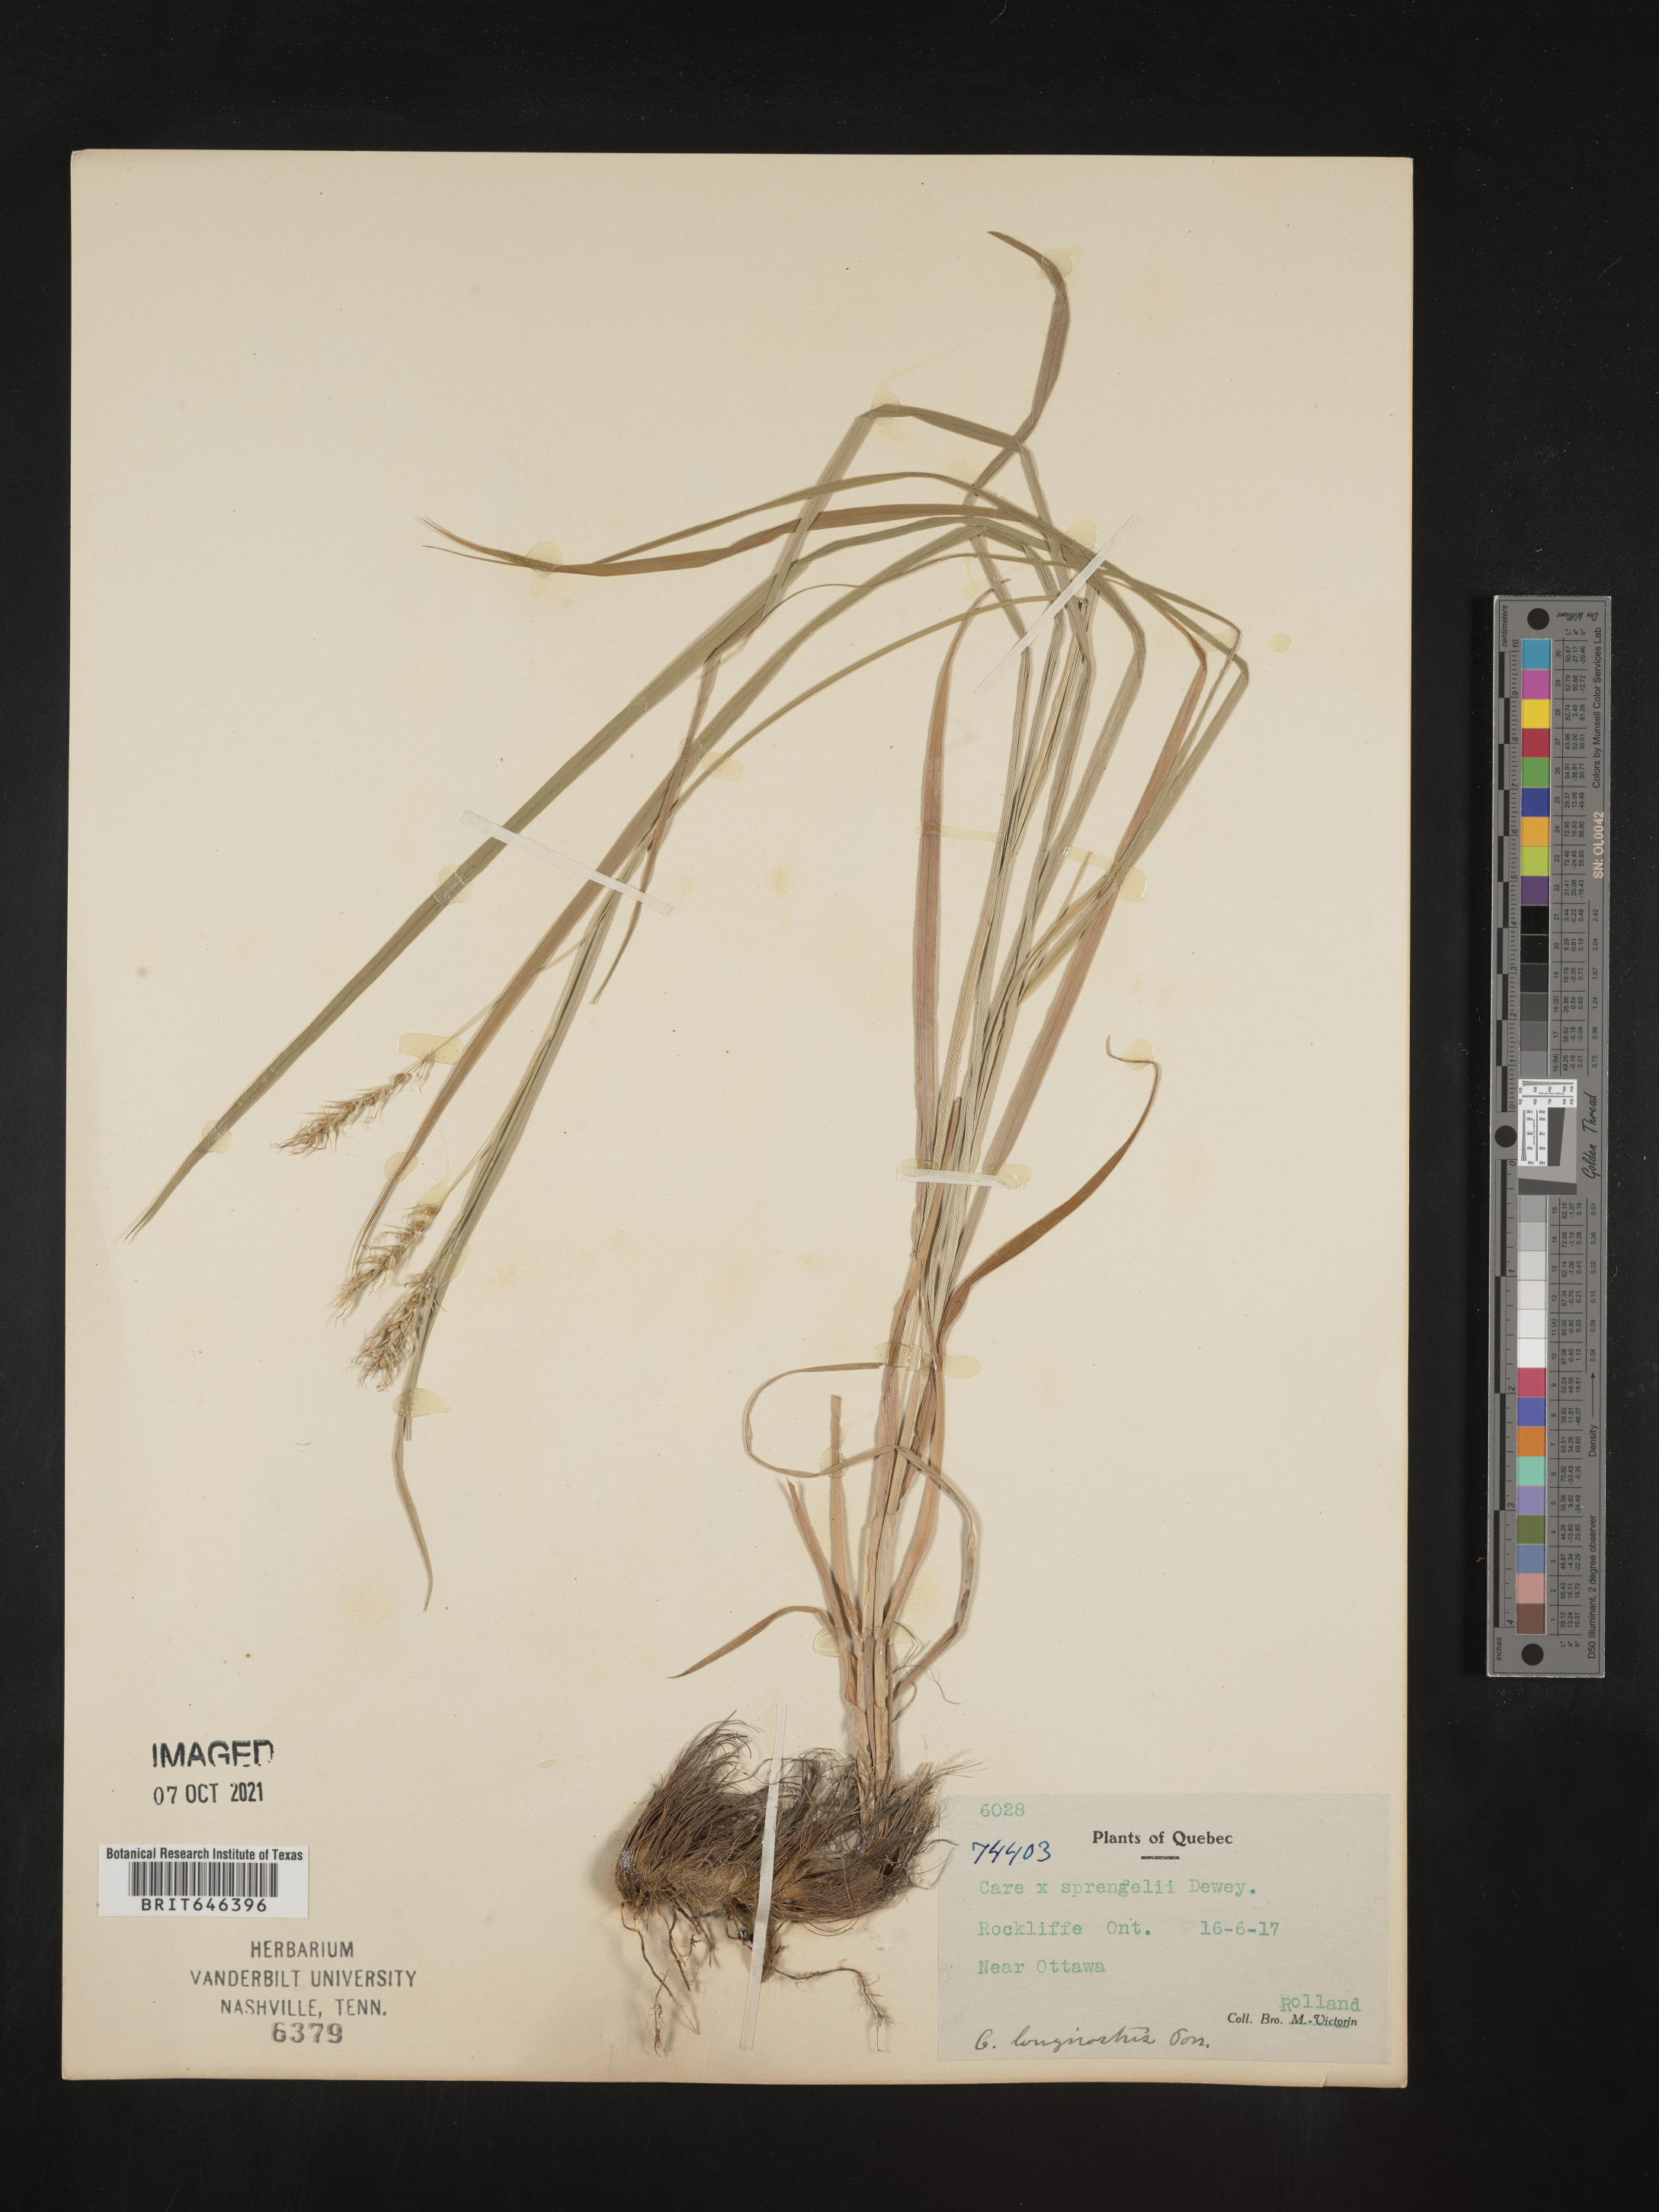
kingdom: Plantae
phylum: Tracheophyta
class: Liliopsida
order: Poales
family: Cyperaceae
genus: Carex
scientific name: Carex sprengelii
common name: Long-beaked sedge
